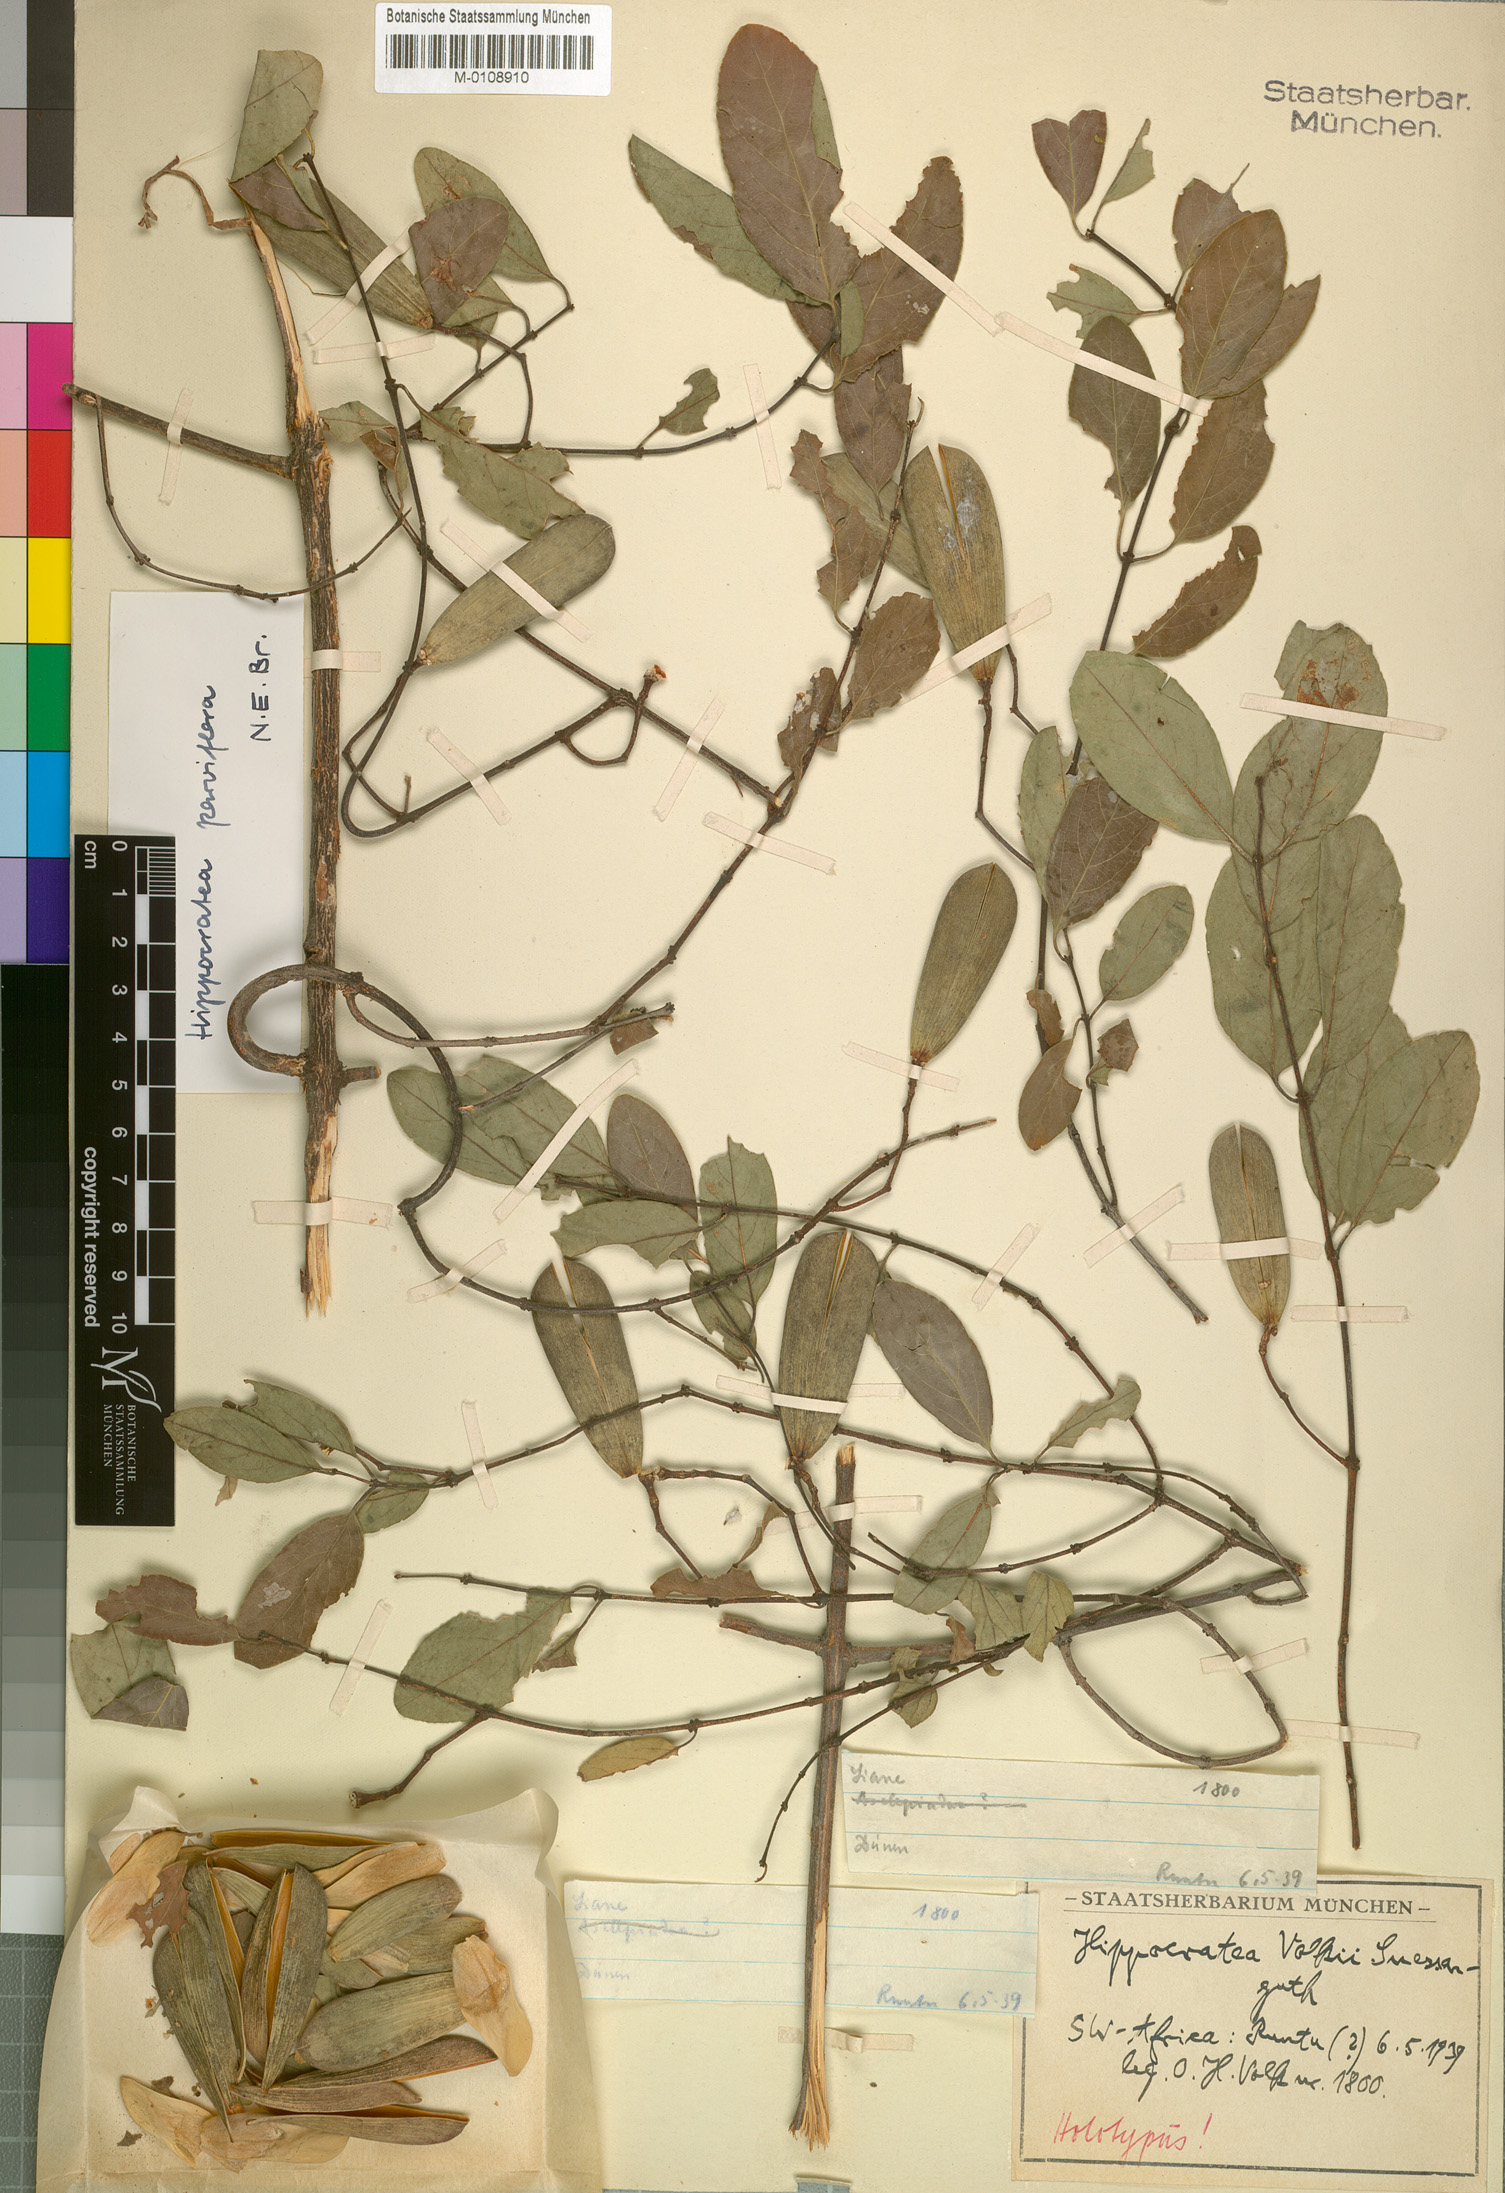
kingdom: Plantae
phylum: Tracheophyta
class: Magnoliopsida
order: Celastrales
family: Celastraceae
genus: Reissantia
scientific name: Reissantia parviflora
